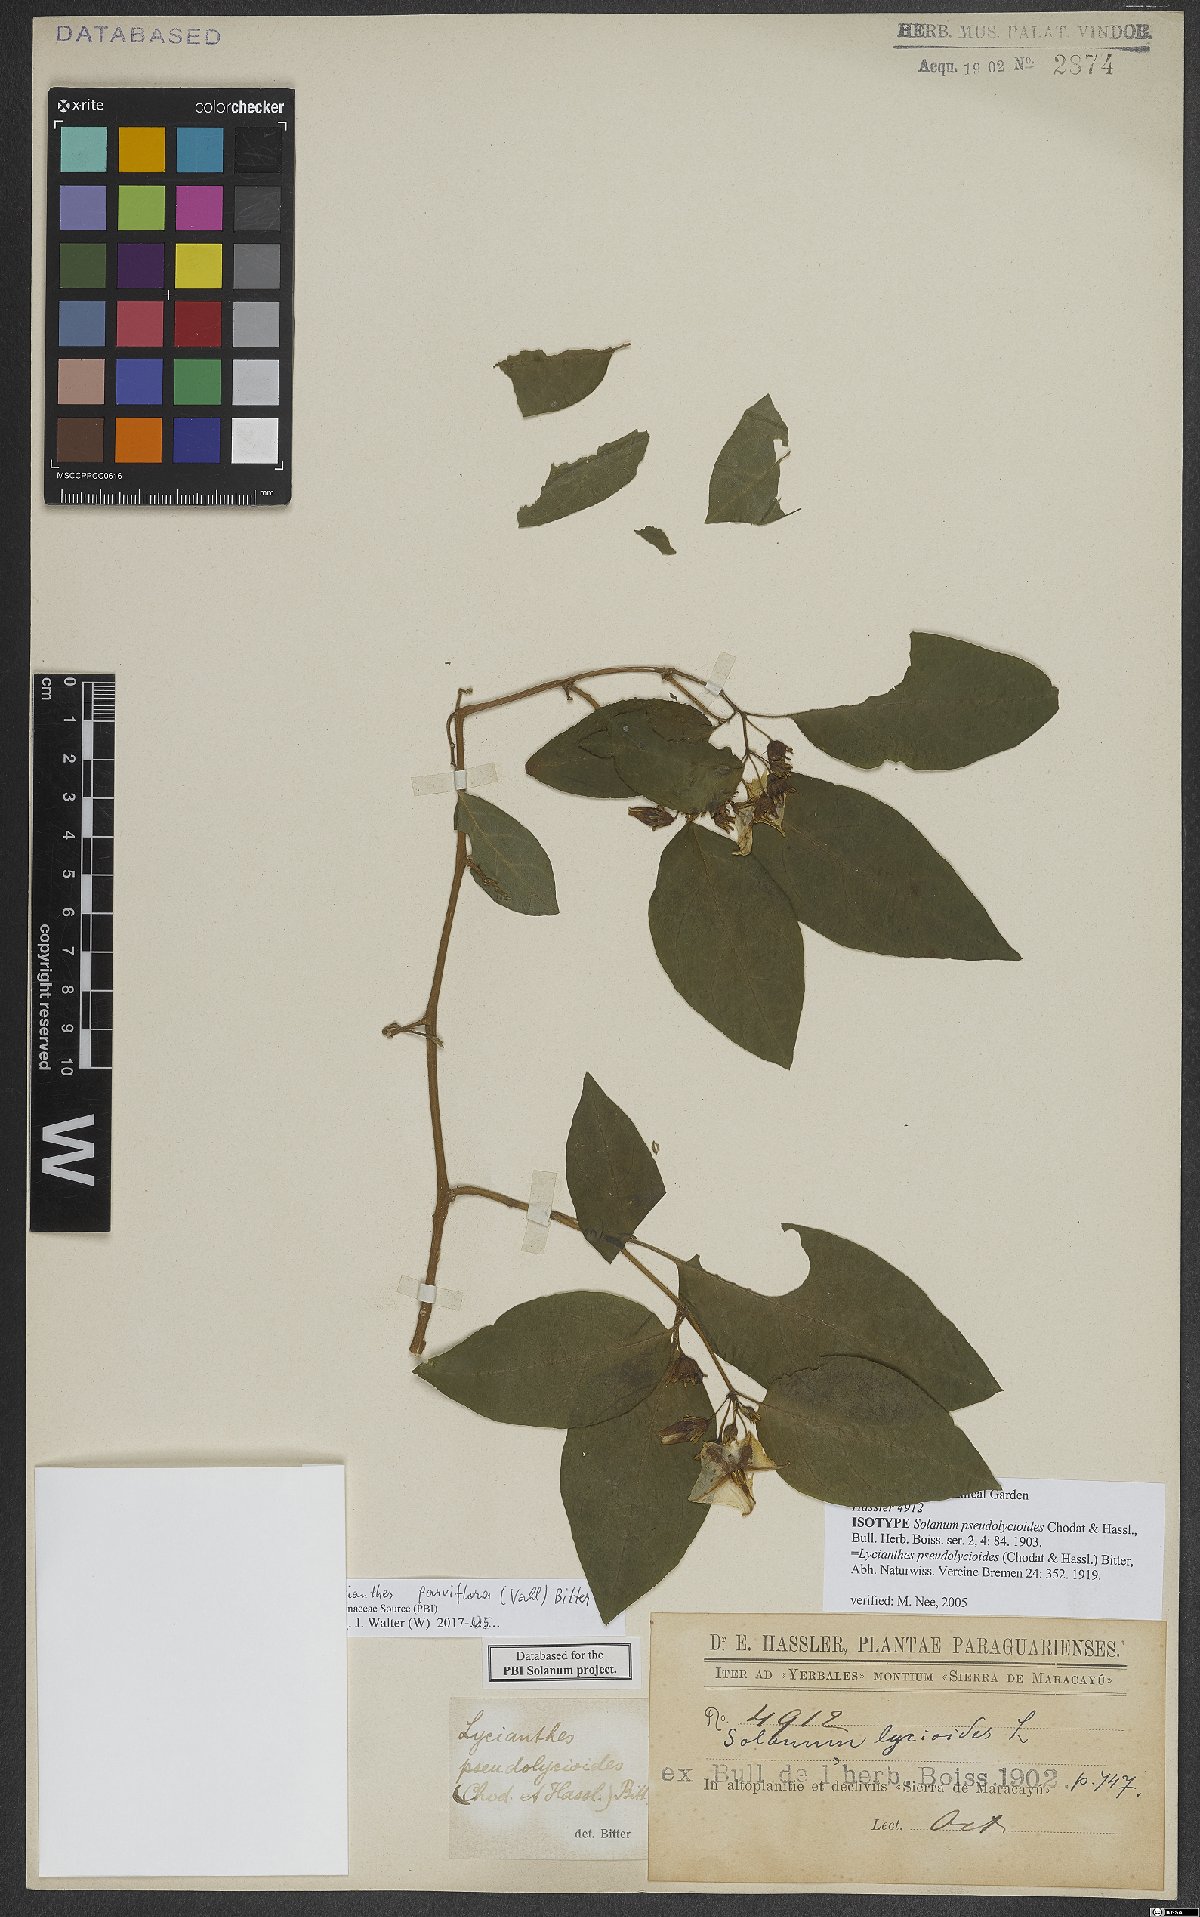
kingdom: Plantae
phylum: Tracheophyta
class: Magnoliopsida
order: Solanales
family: Solanaceae
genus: Lycianthes
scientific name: Lycianthes pauciflora
